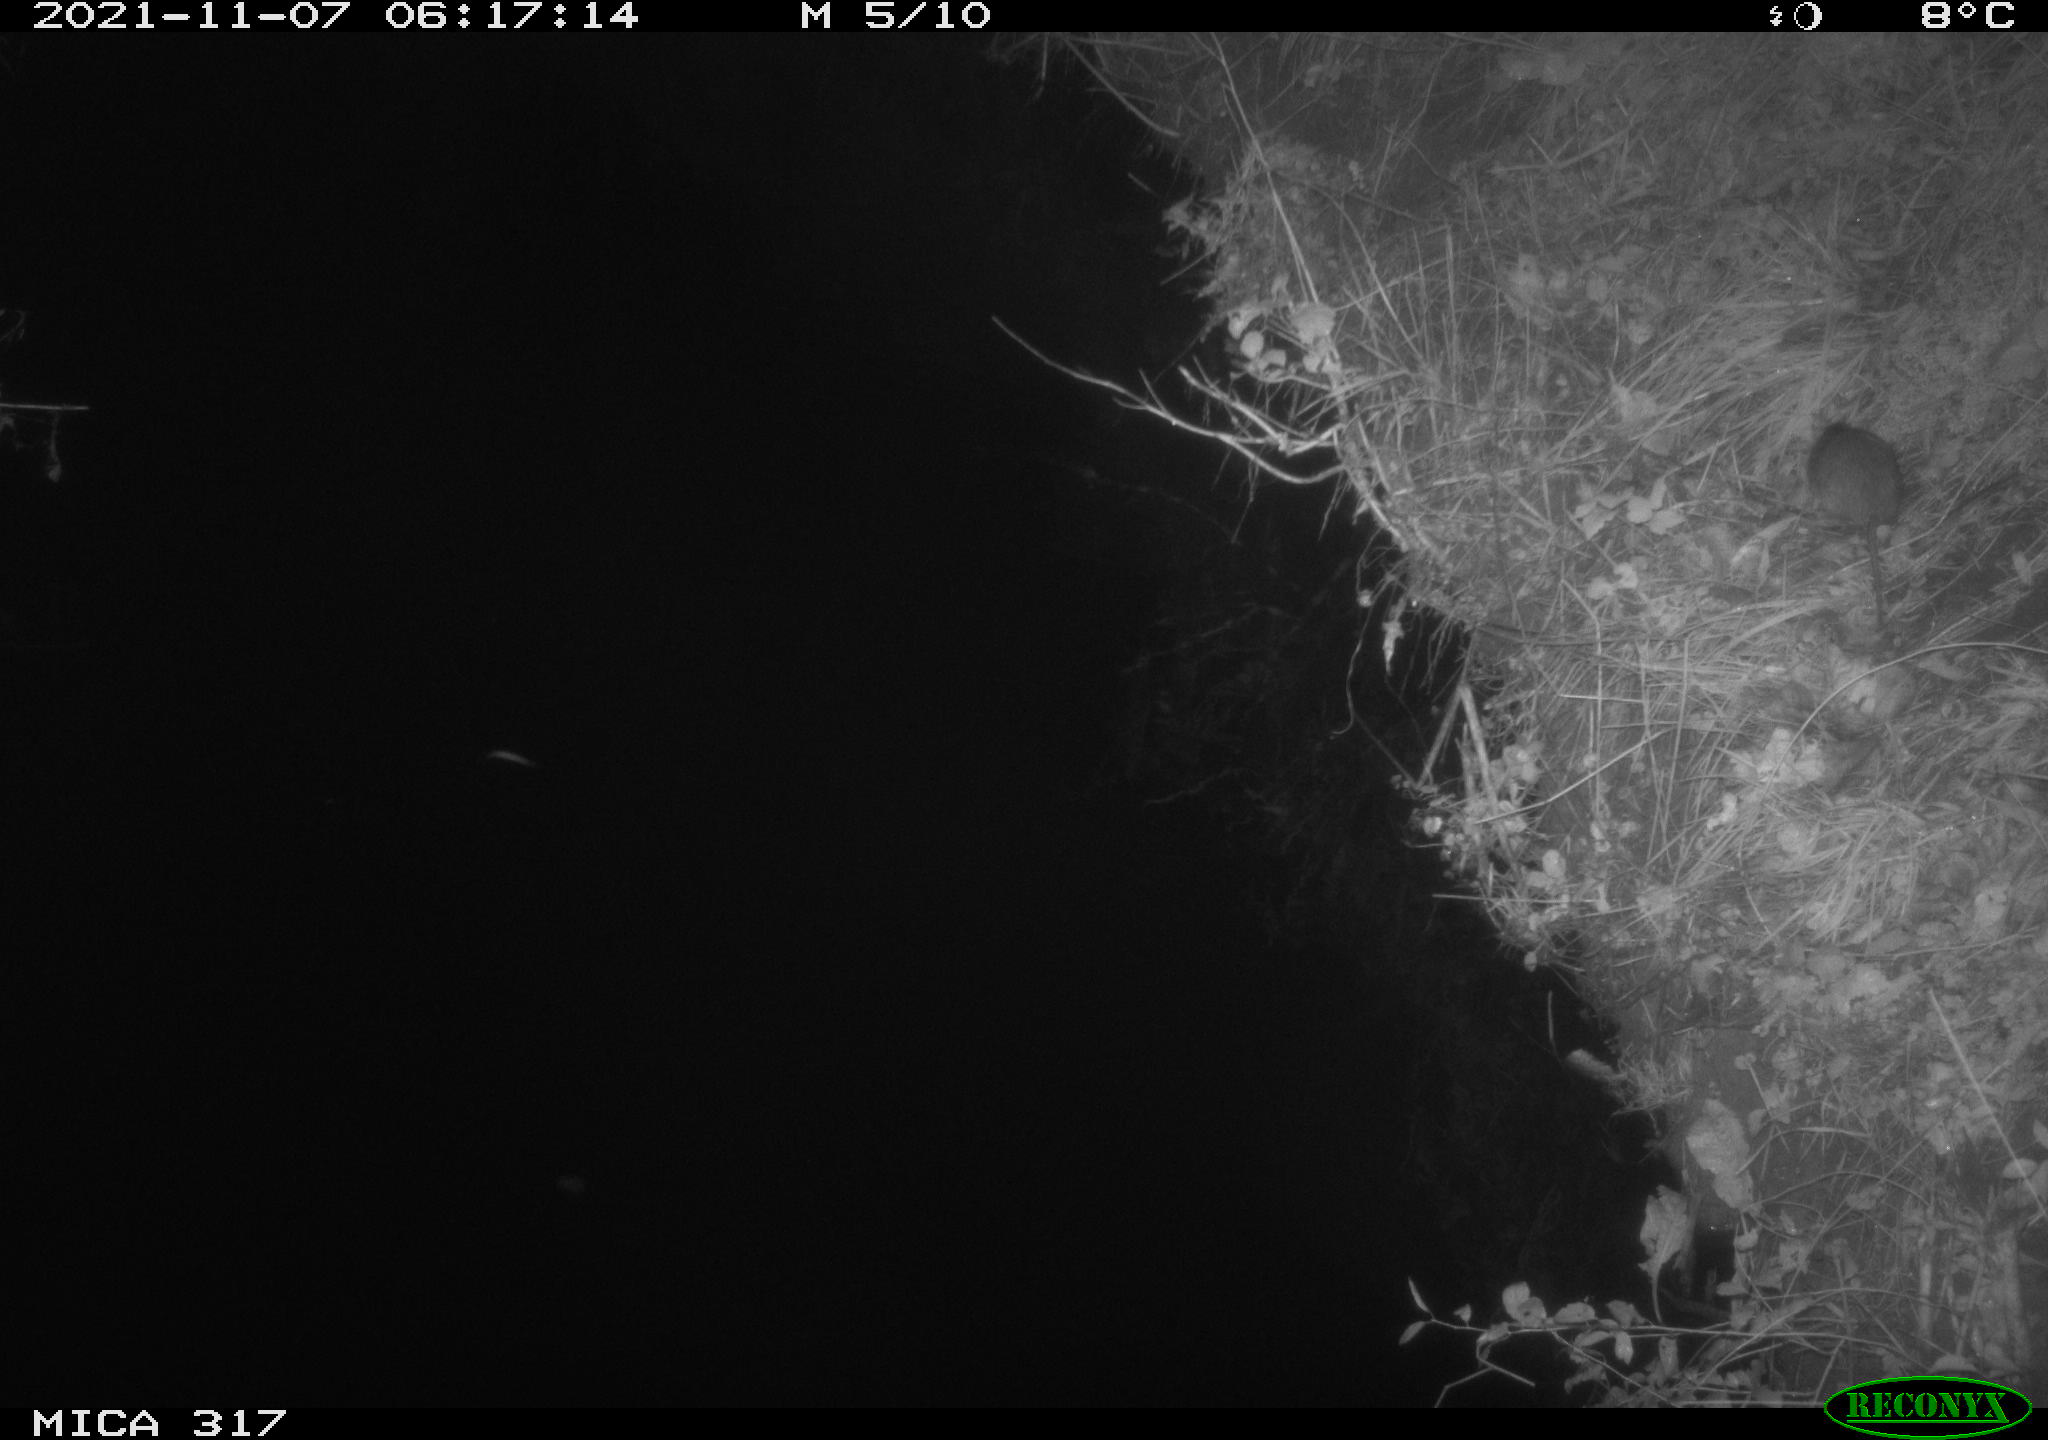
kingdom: Animalia
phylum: Chordata
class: Mammalia
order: Rodentia
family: Muridae
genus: Rattus
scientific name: Rattus norvegicus
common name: Brown rat
